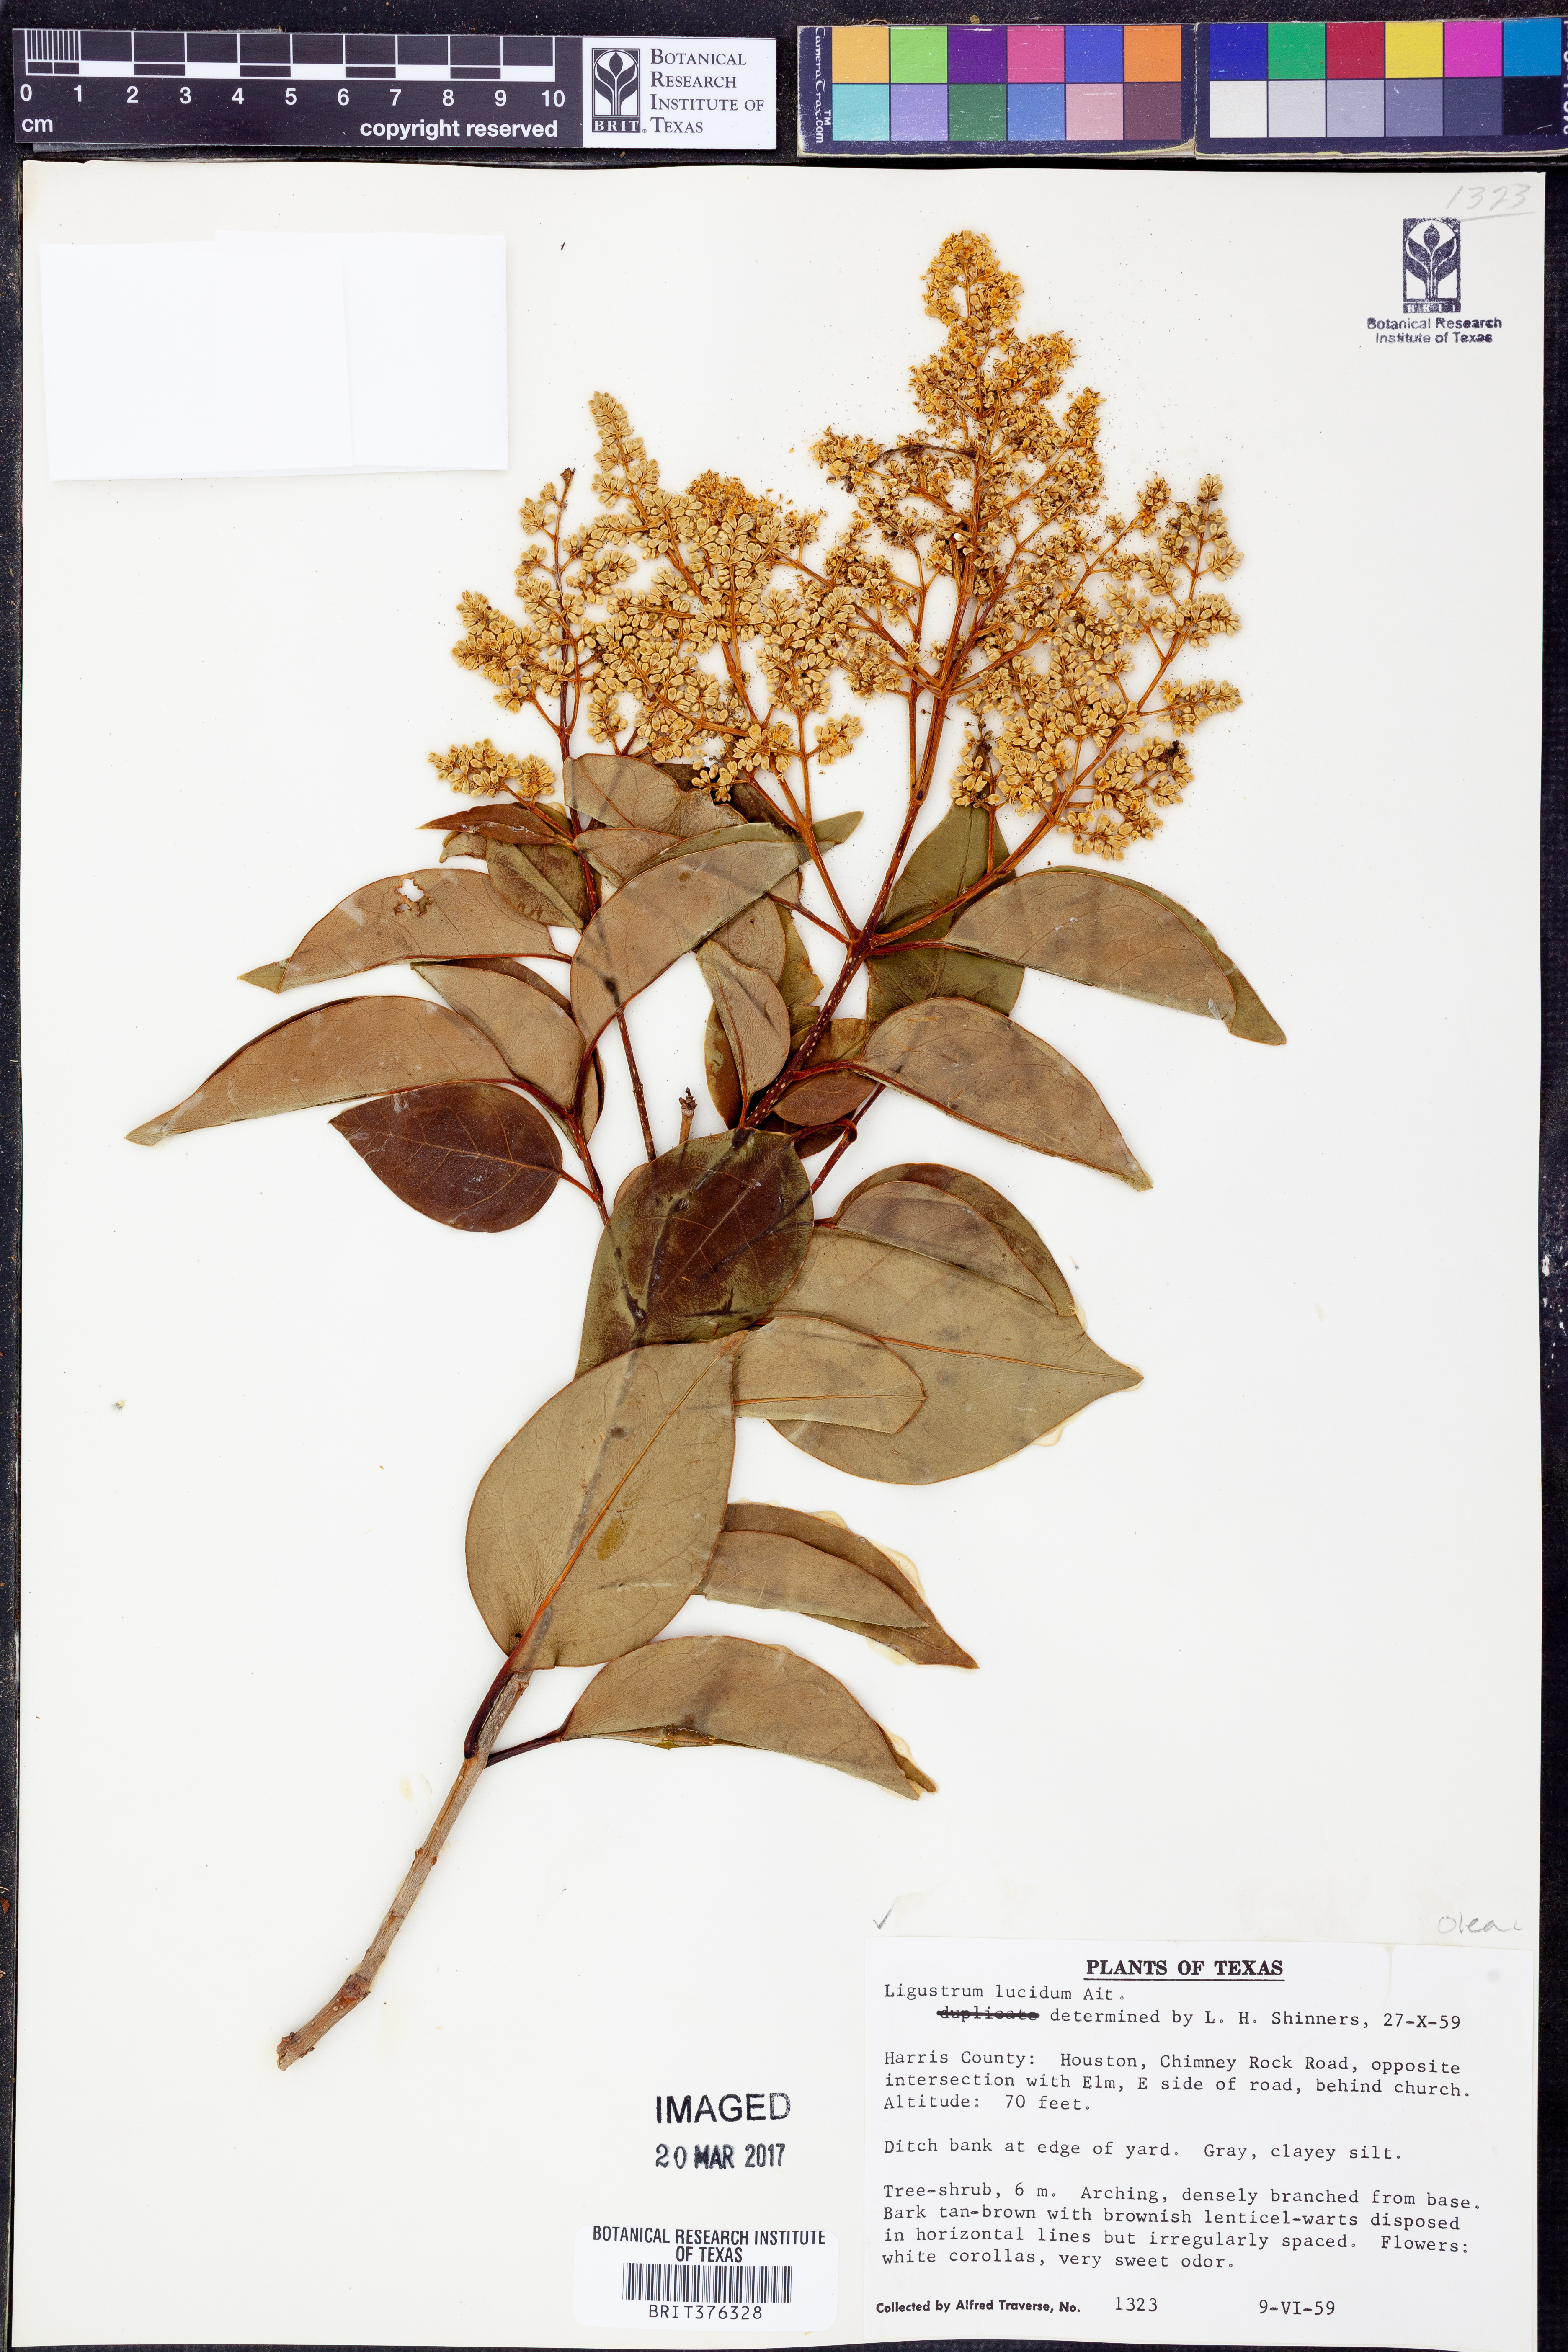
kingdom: Plantae
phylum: Tracheophyta
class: Magnoliopsida
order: Lamiales
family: Oleaceae
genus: Ligustrum
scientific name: Ligustrum lucidum
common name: Glossy privet
